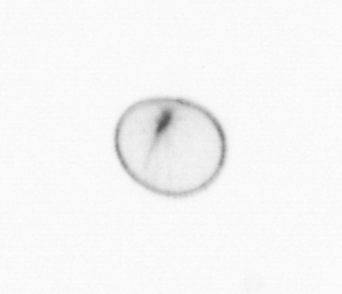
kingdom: Chromista
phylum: Myzozoa
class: Dinophyceae
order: Noctilucales
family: Noctilucaceae
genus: Noctiluca
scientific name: Noctiluca scintillans
